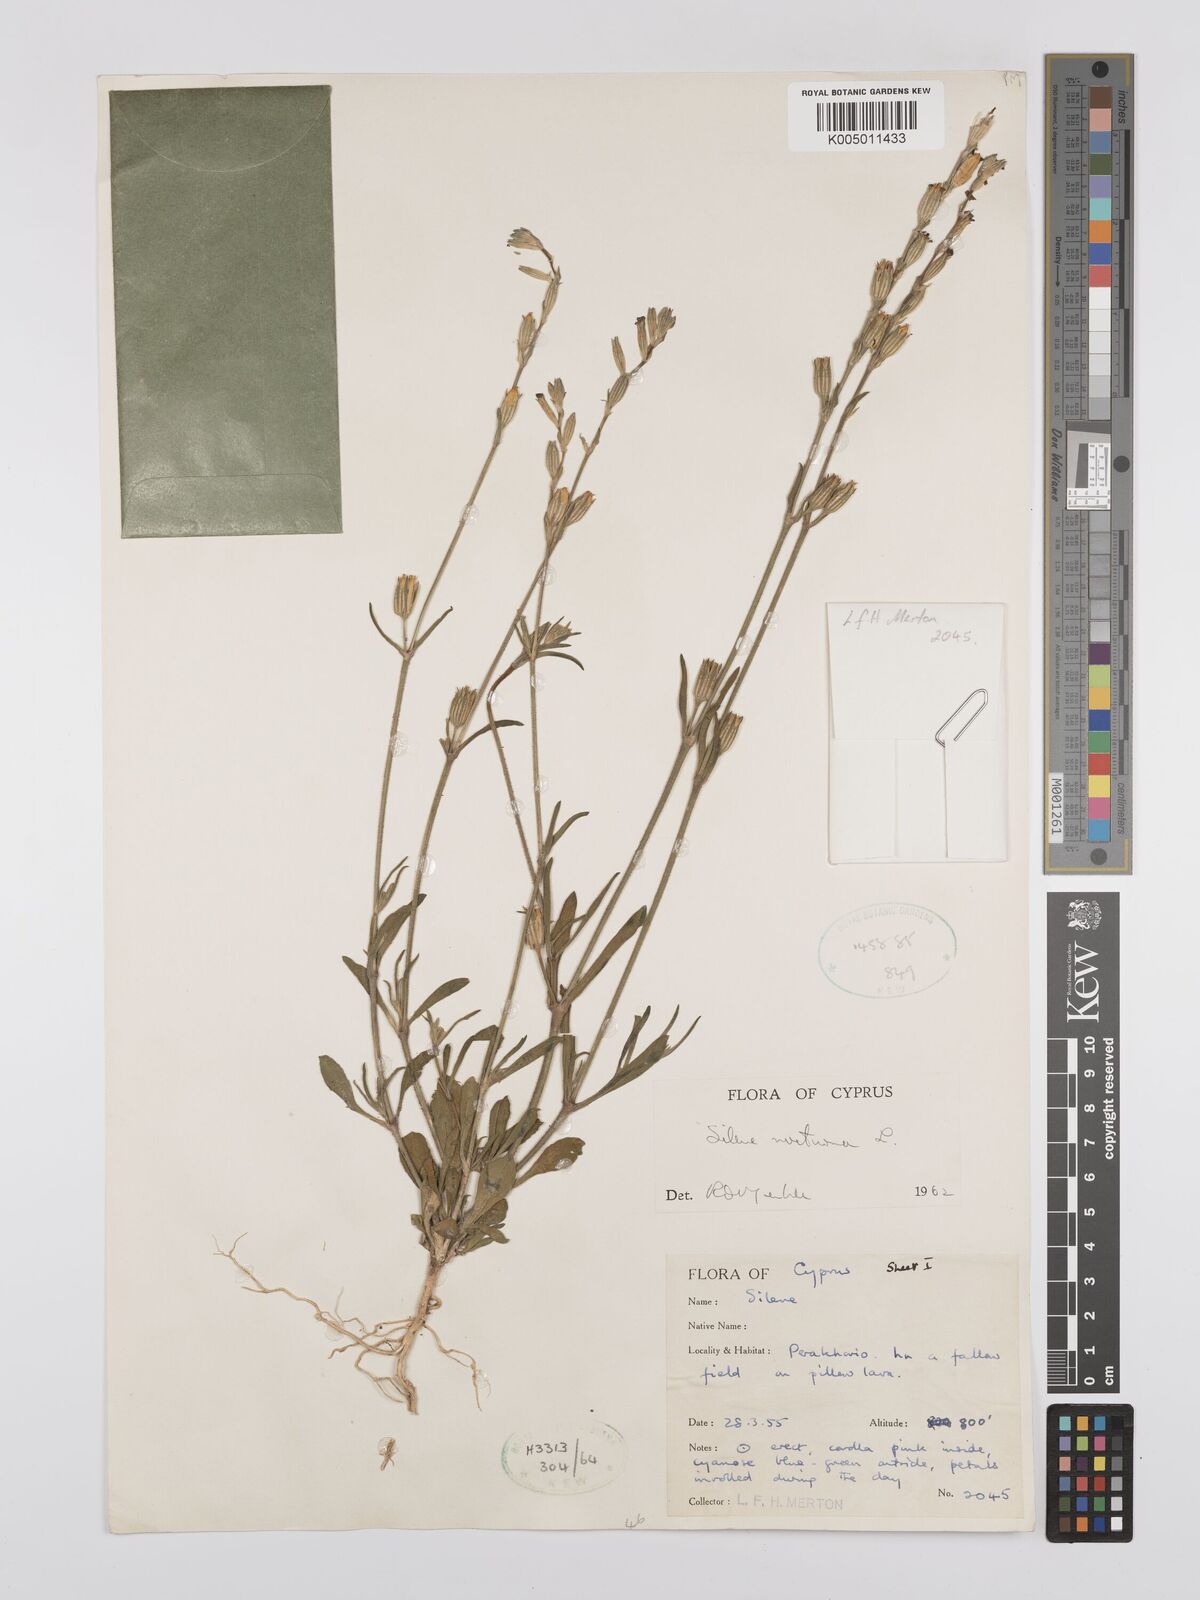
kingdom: Plantae
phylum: Tracheophyta
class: Magnoliopsida
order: Caryophyllales
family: Caryophyllaceae
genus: Silene
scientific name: Silene nocturna
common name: Mediterranean catchfly
